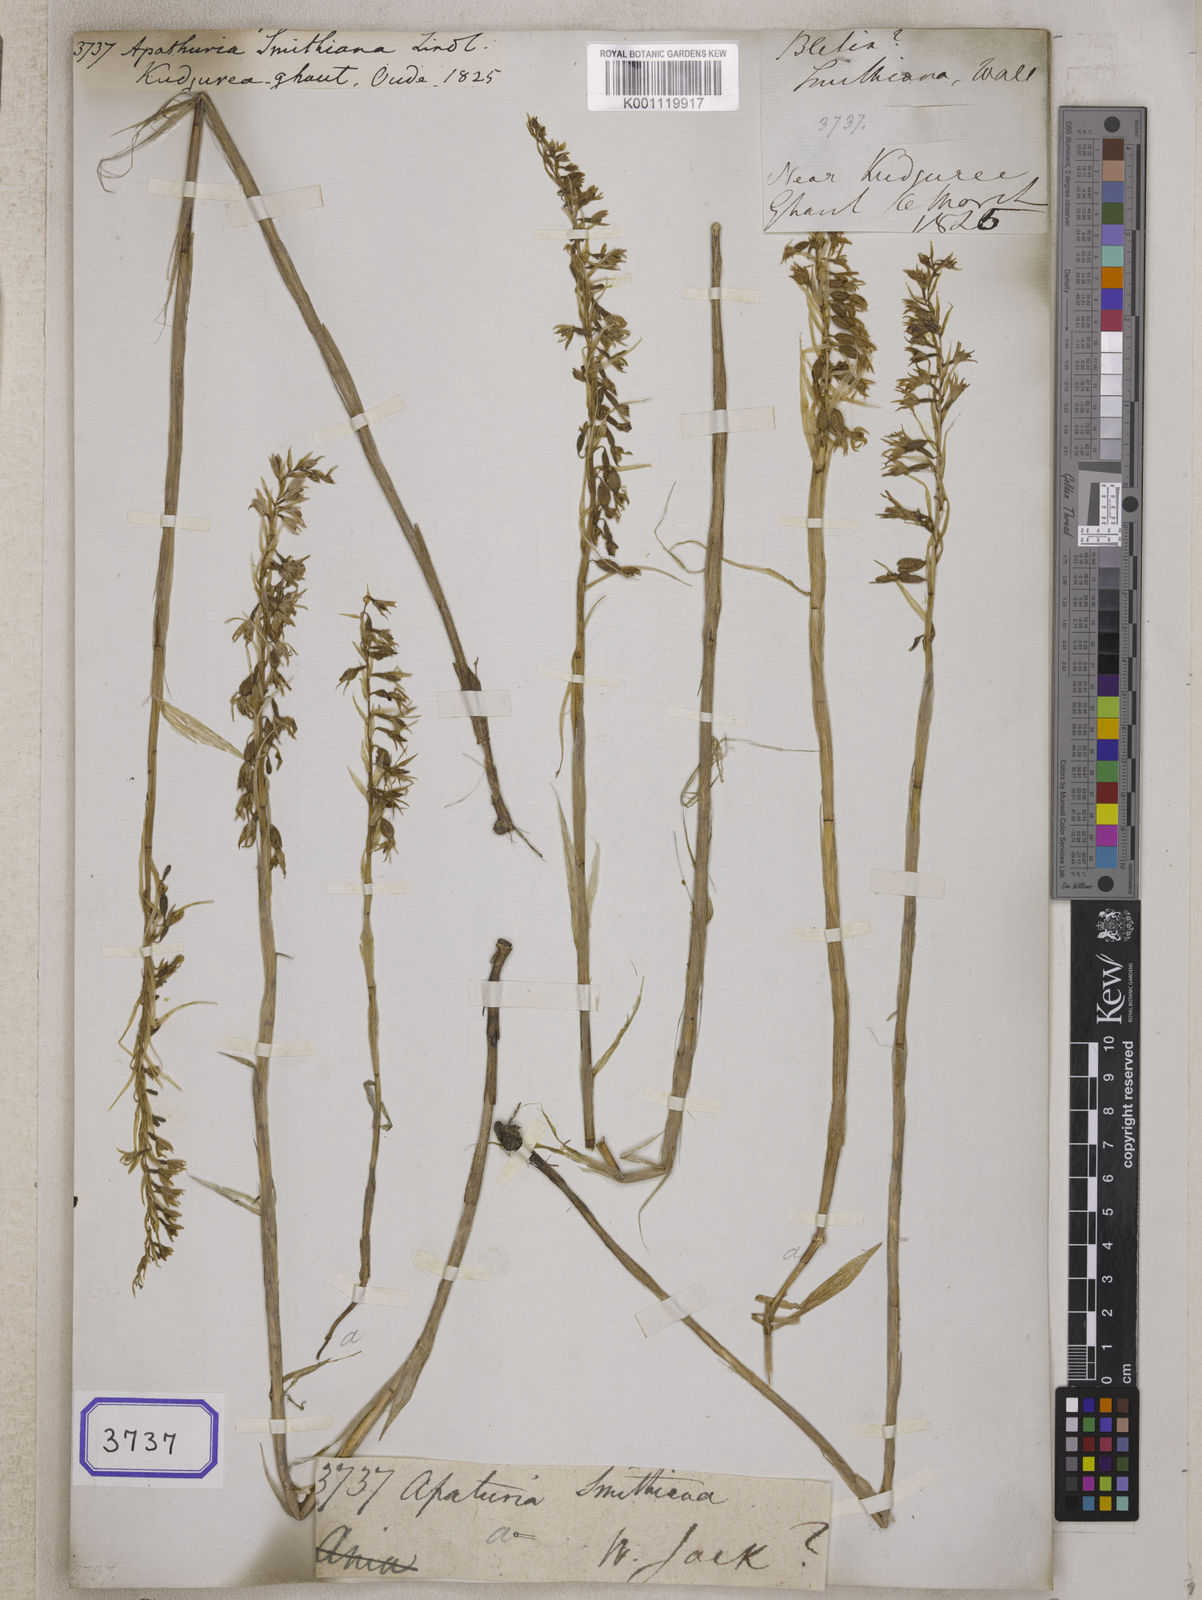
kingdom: Plantae
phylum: Tracheophyta
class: Liliopsida
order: Asparagales
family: Orchidaceae
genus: Pachystoma
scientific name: Pachystoma pubescens
